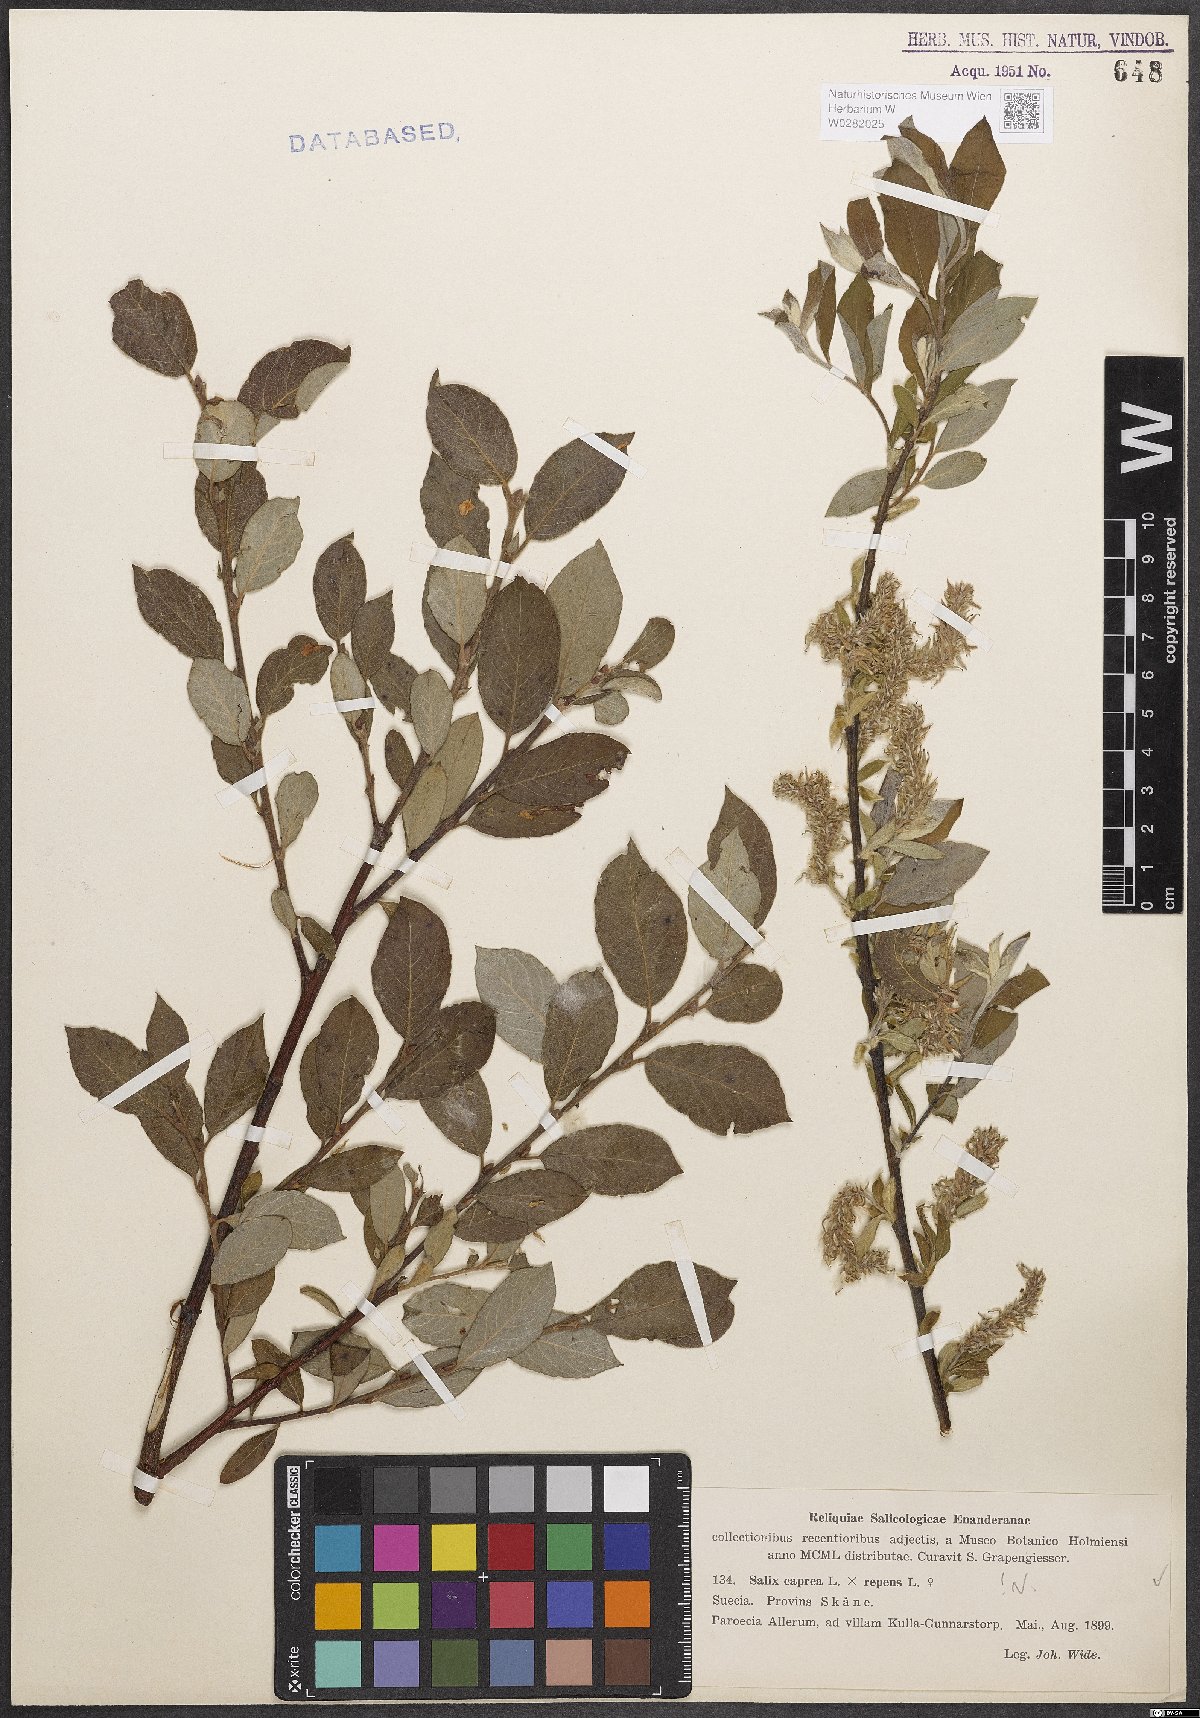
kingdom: Plantae
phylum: Tracheophyta
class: Magnoliopsida
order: Malpighiales
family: Salicaceae
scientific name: Salicaceae
